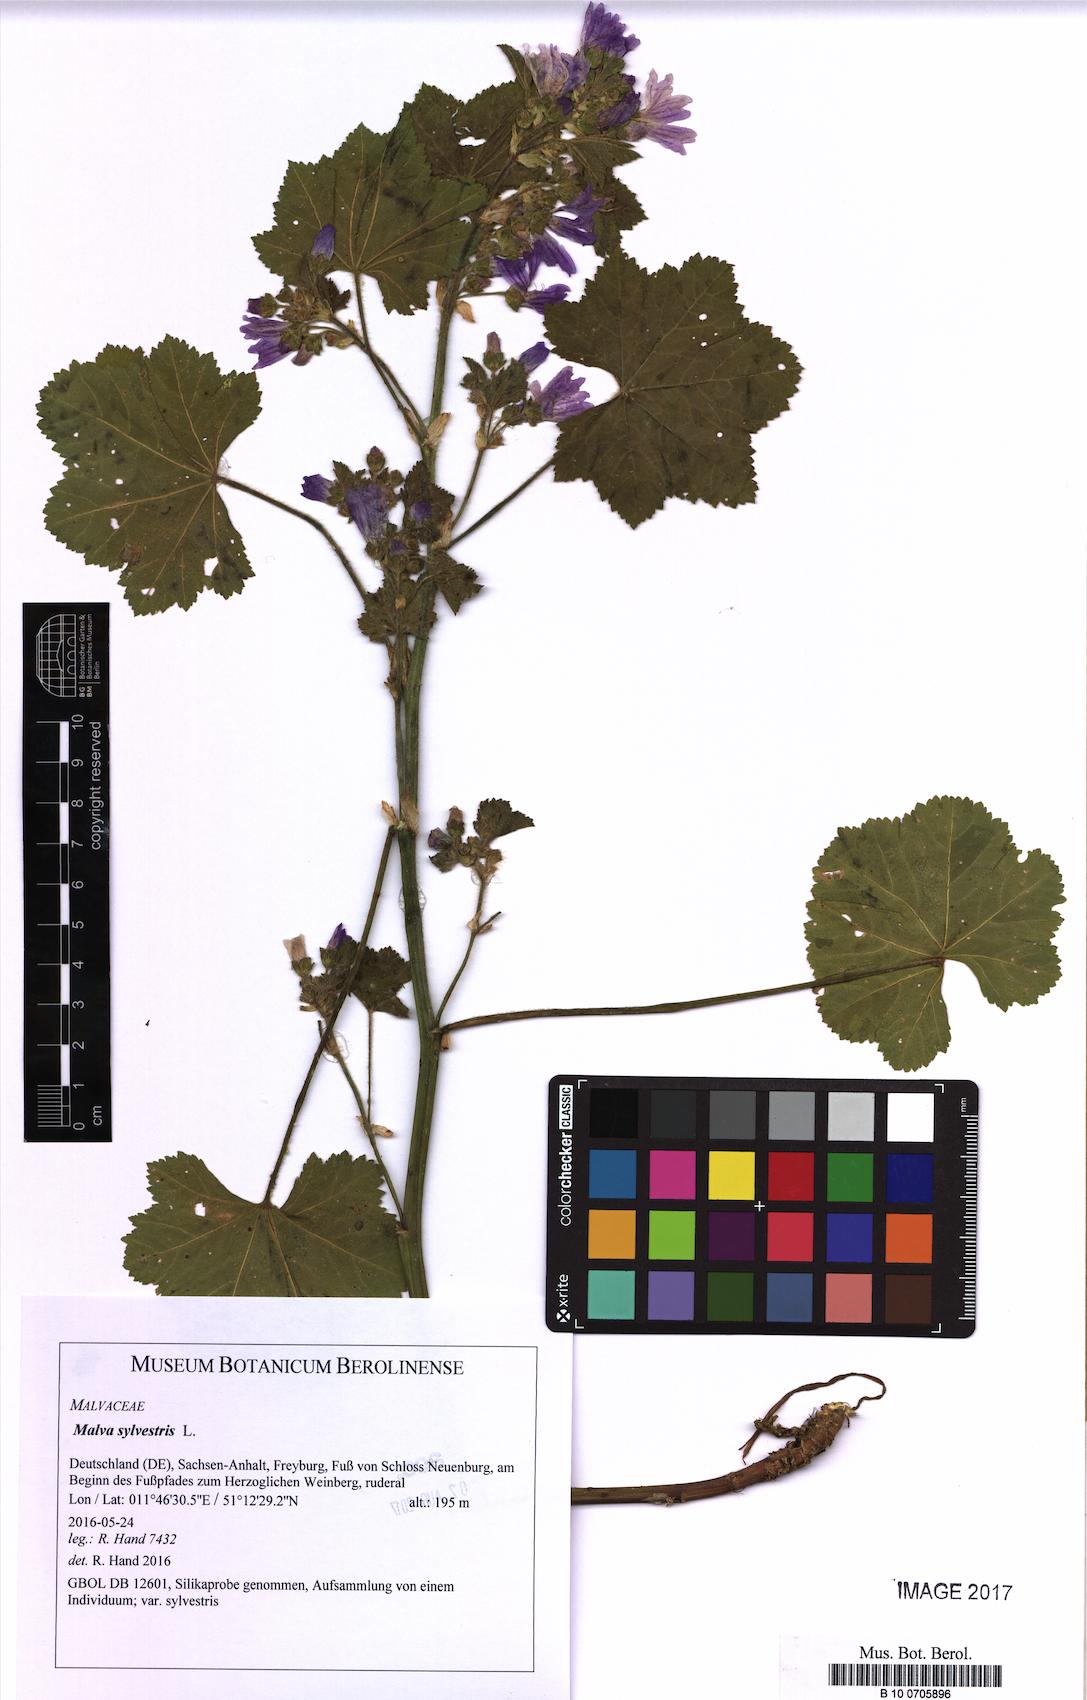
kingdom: Plantae
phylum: Tracheophyta
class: Magnoliopsida
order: Malvales
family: Malvaceae
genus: Malva
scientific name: Malva sylvestris
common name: Common mallow
